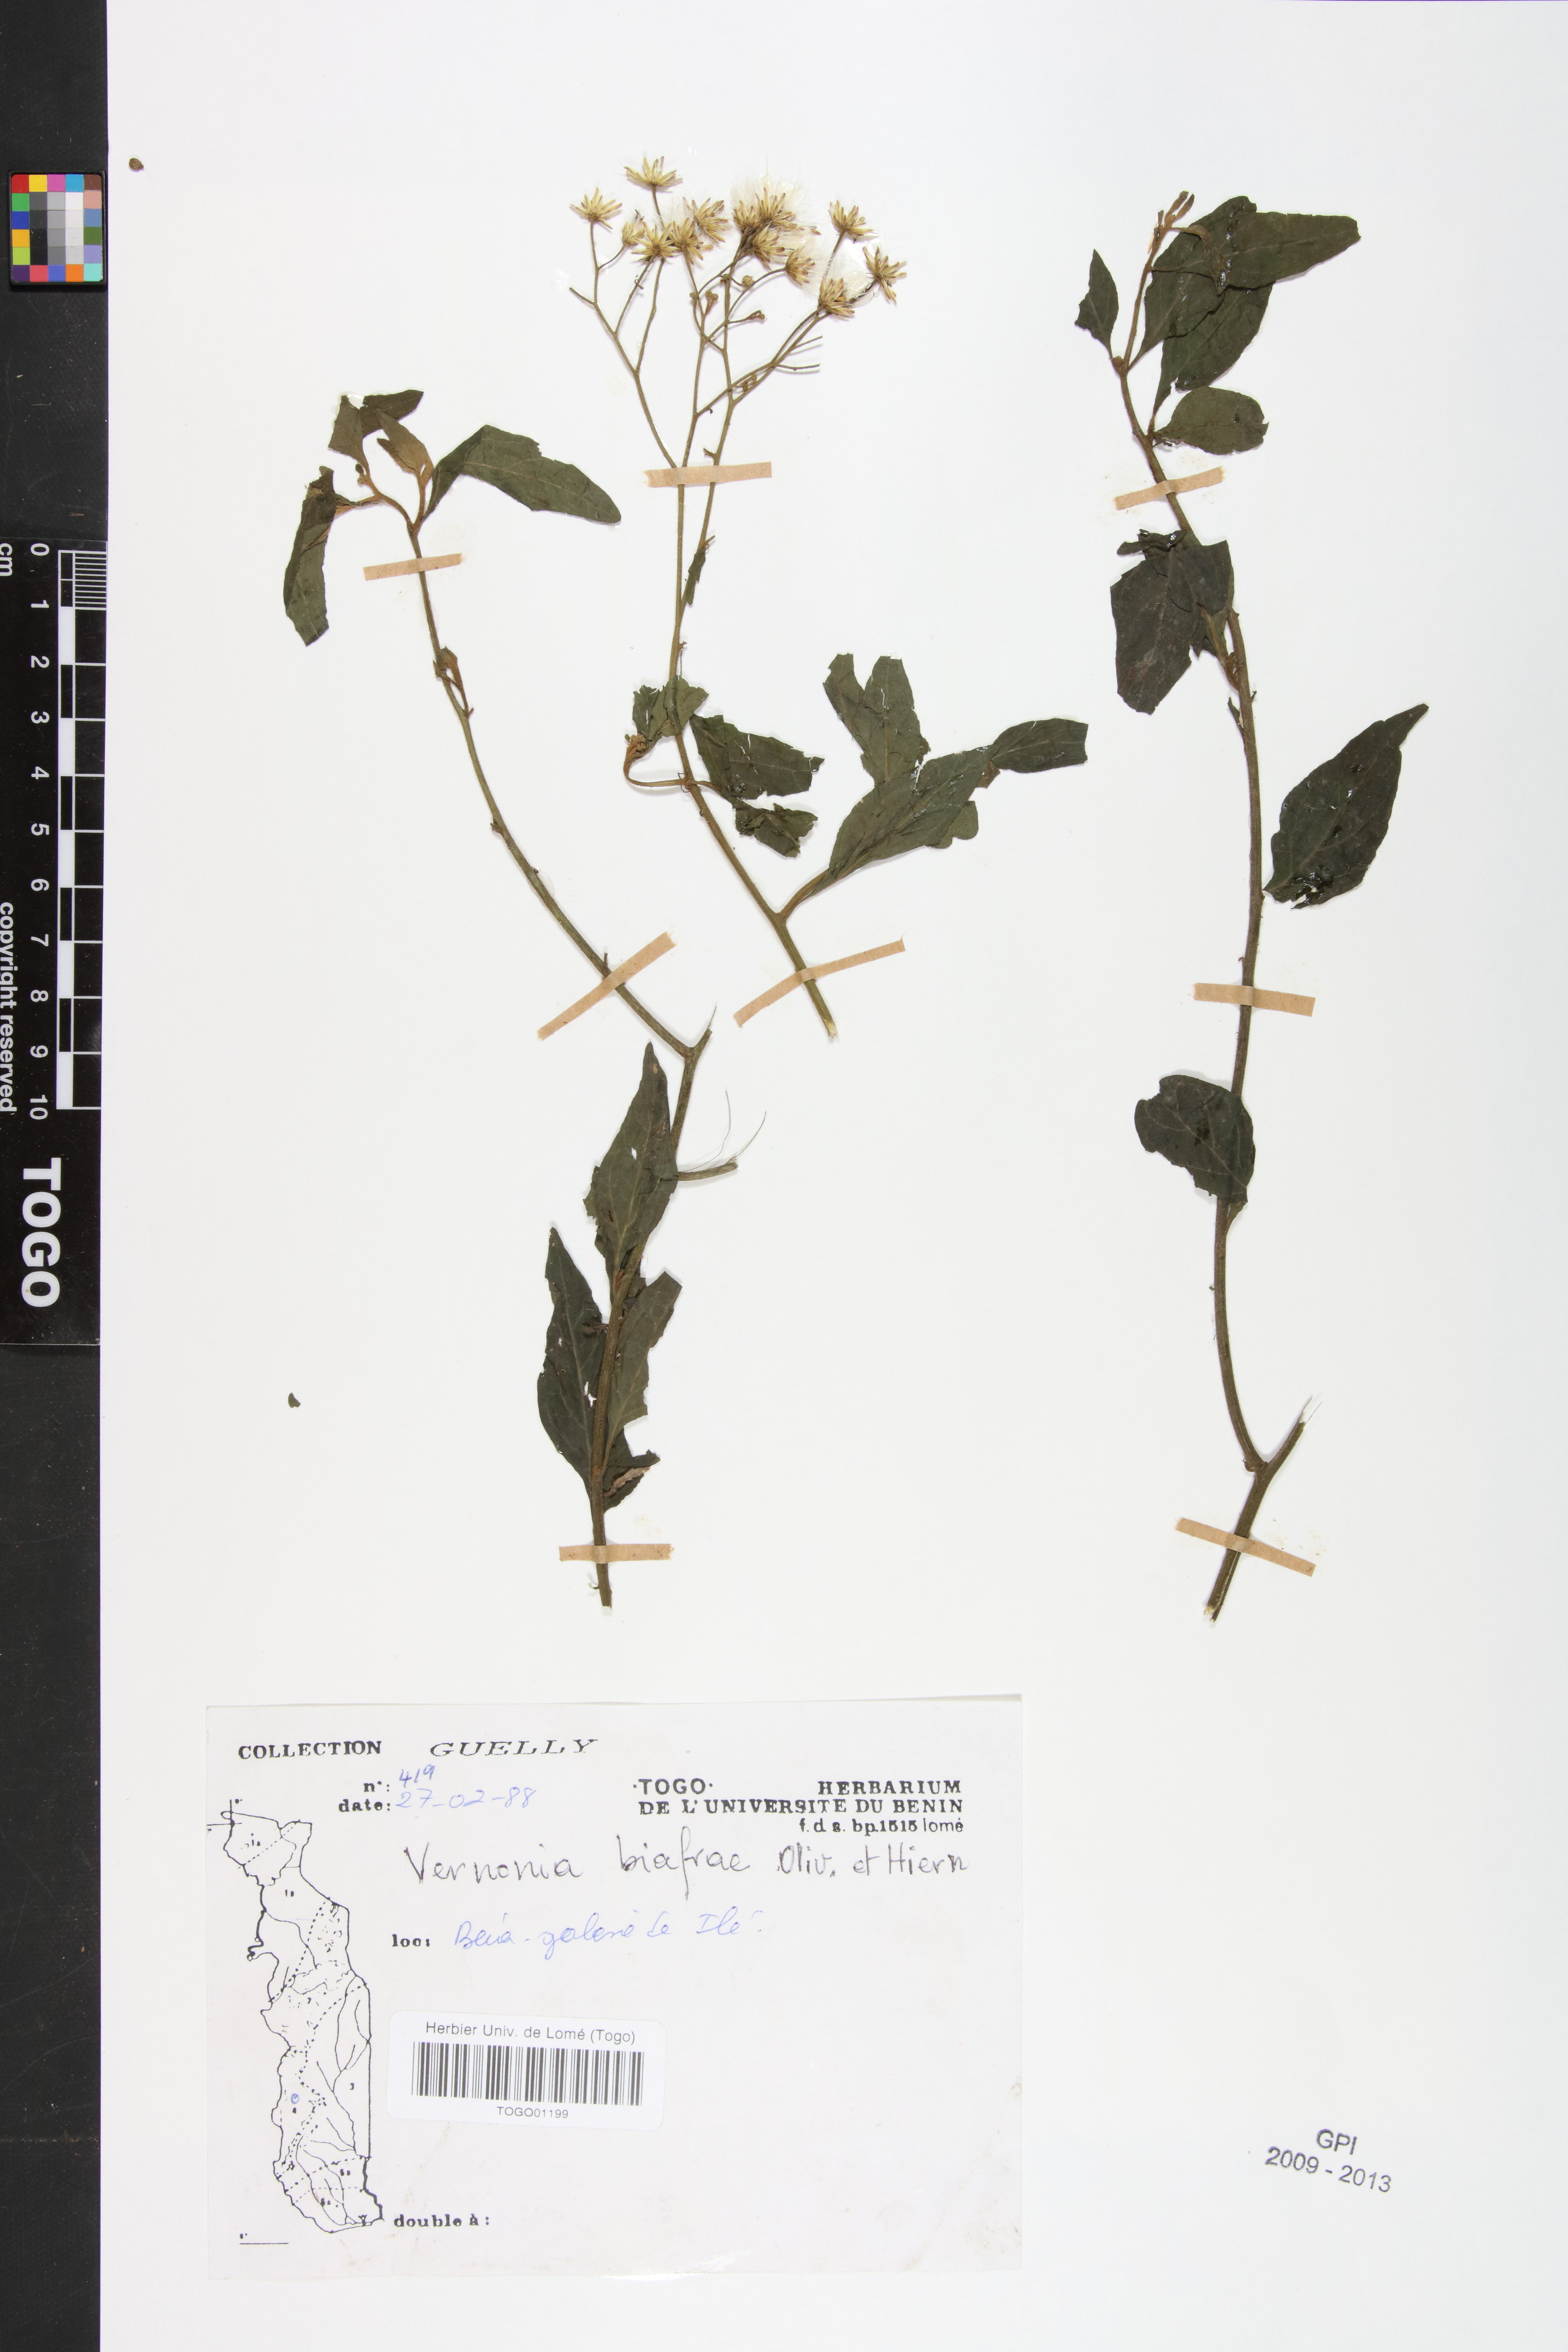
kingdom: Plantae
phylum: Tracheophyta
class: Magnoliopsida
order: Asterales
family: Asteraceae
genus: Distephanus
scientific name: Distephanus biafrae
